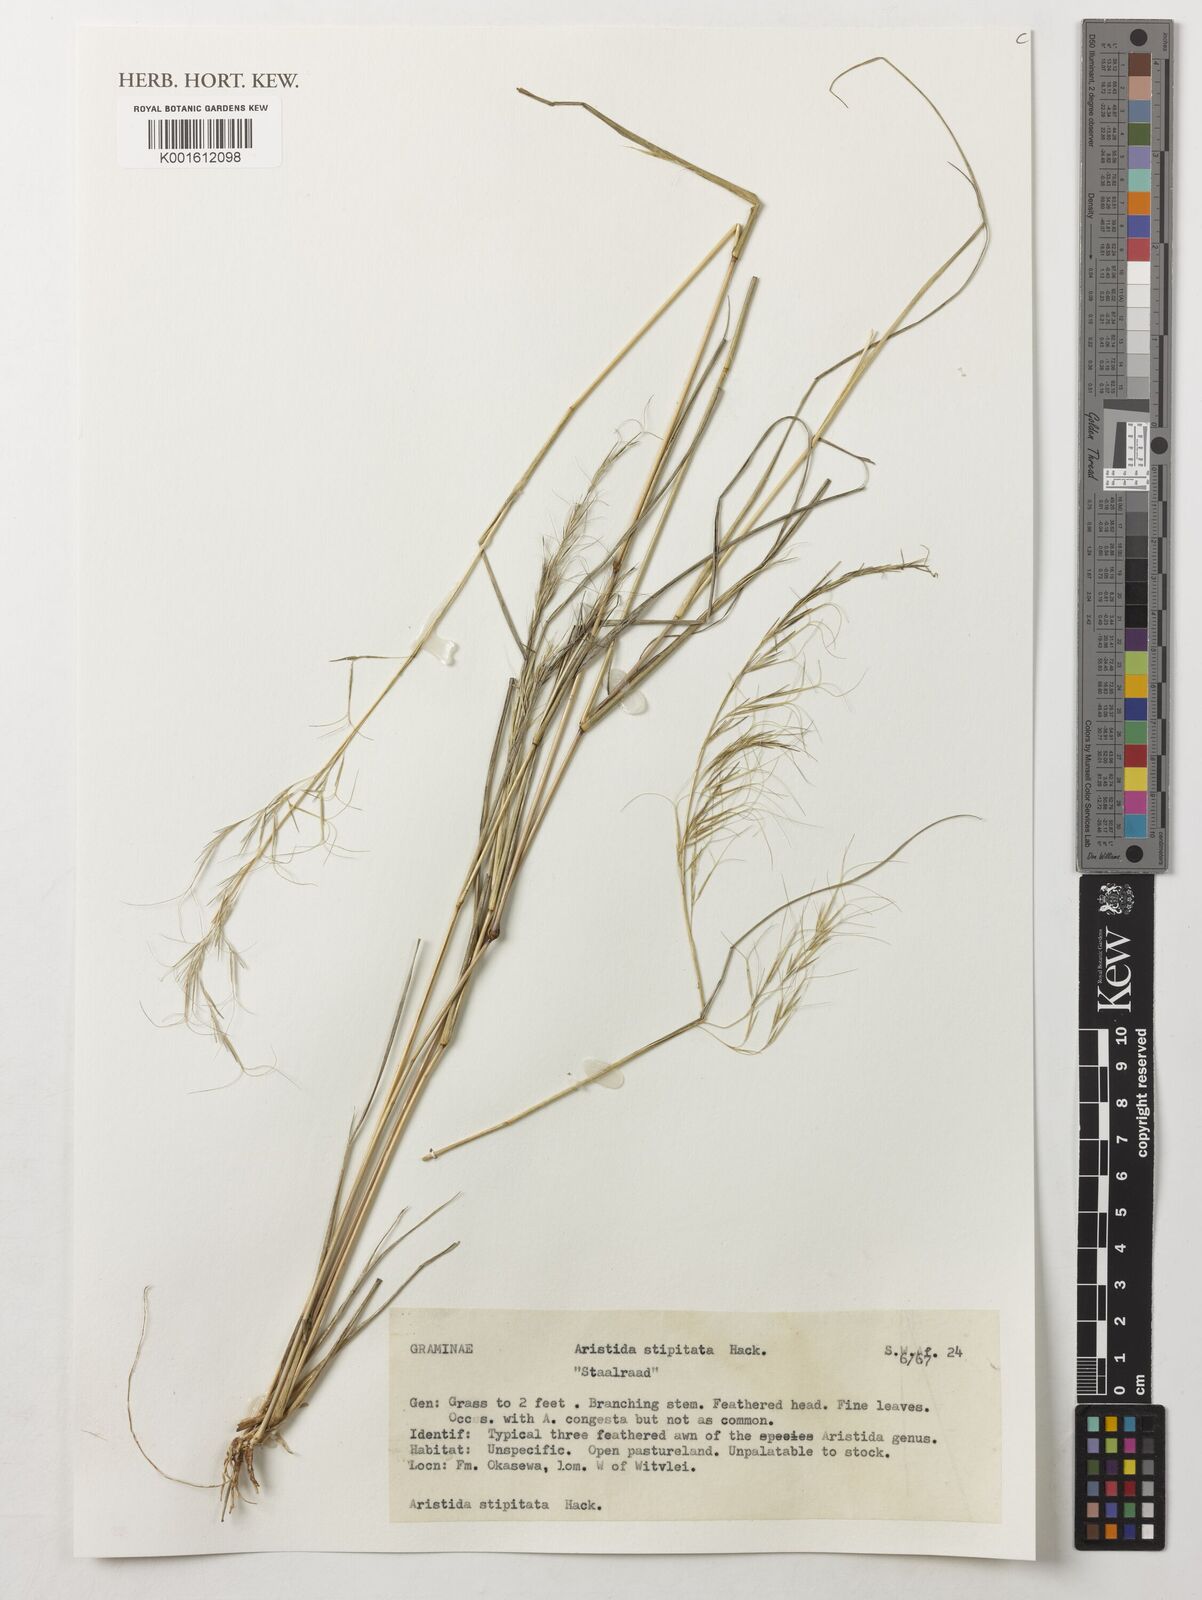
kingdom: Plantae
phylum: Tracheophyta
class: Liliopsida
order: Poales
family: Poaceae
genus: Aristida
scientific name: Aristida stipitata
